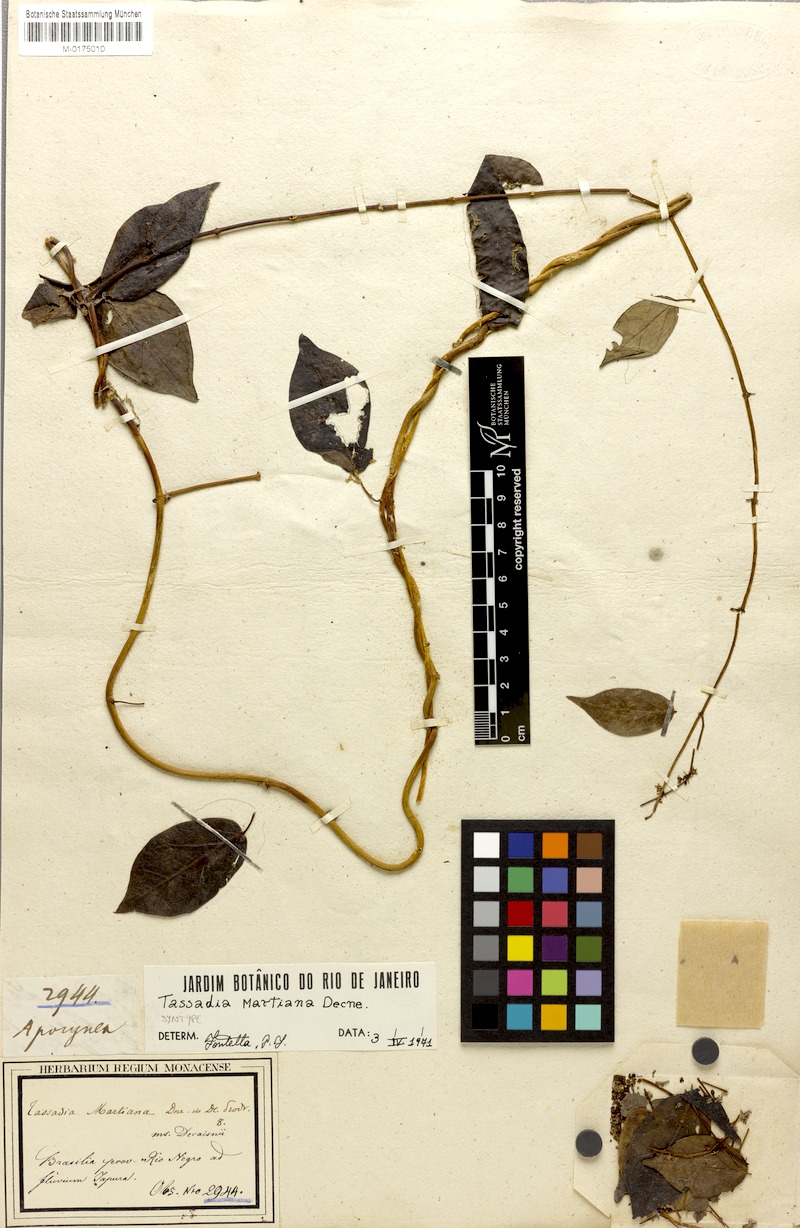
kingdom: Plantae
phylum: Tracheophyta
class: Magnoliopsida
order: Gentianales
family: Apocynaceae
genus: Tassadia
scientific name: Tassadia martiana
